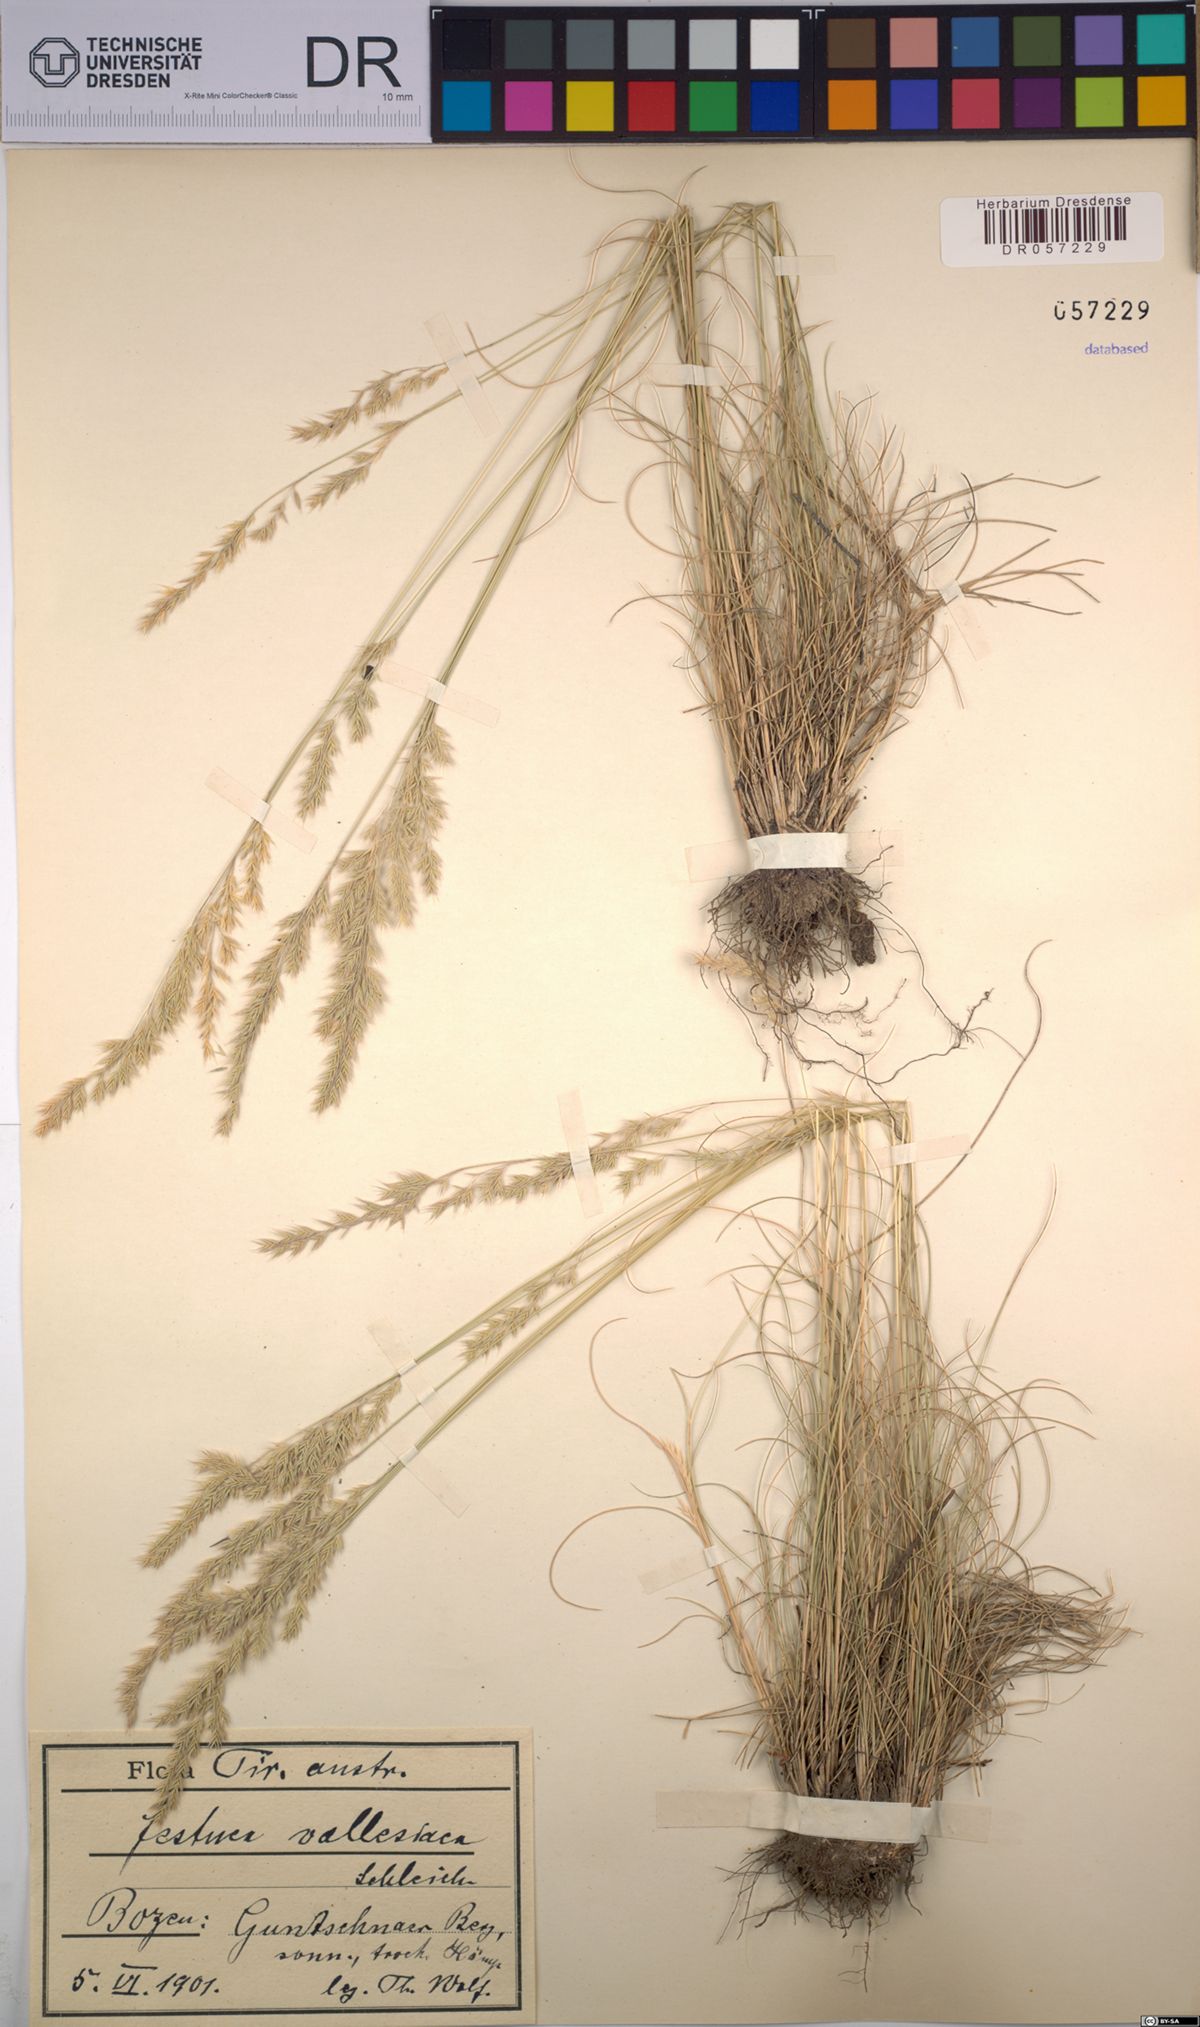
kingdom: Plantae
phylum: Tracheophyta
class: Liliopsida
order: Poales
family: Poaceae
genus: Festuca
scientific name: Festuca valesiaca
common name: Volga fescue
